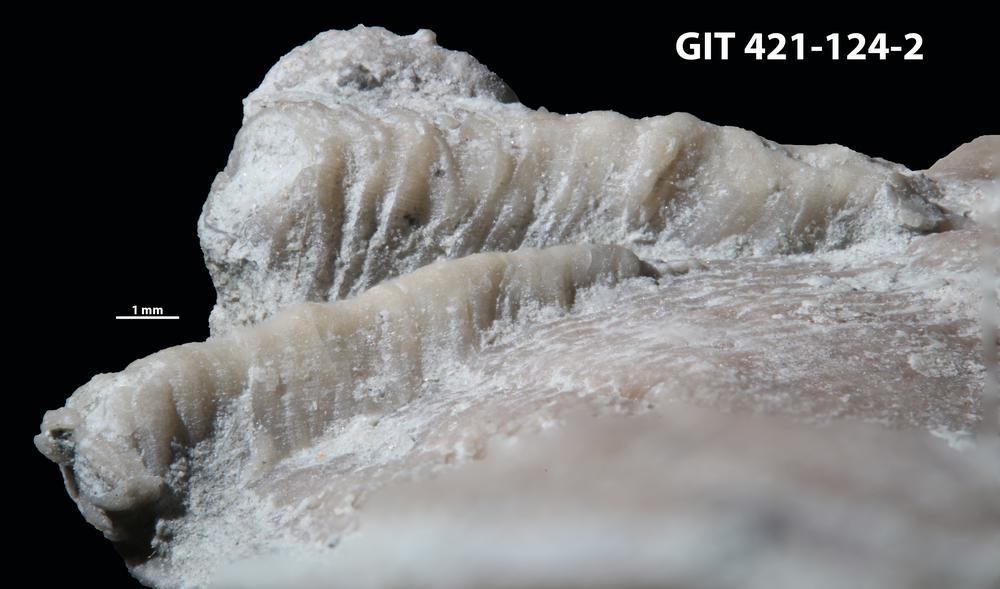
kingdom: Animalia
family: Cornulitidae
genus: Cornulites
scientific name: Cornulites
